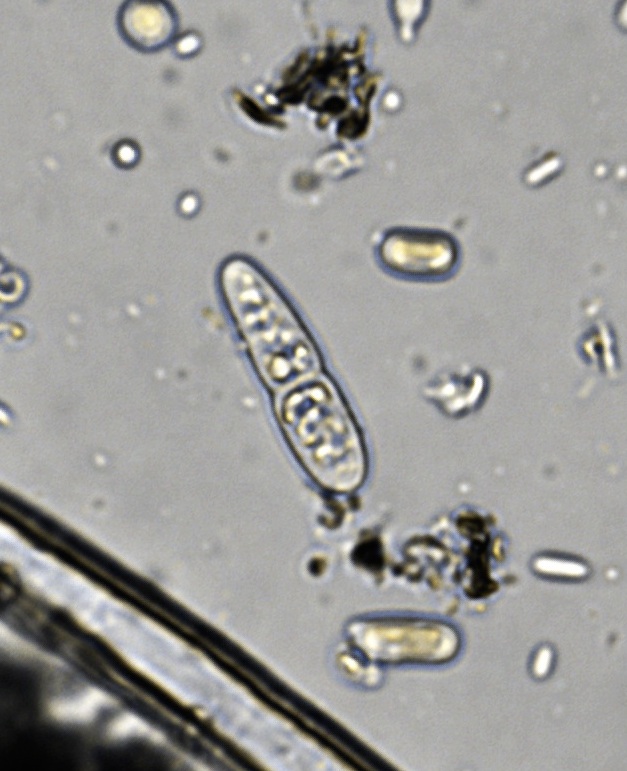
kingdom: Fungi
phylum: Ascomycota
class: Dothideomycetes
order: Dothideales
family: Dothideaceae
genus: Scirrhia
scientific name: Scirrhia rimosa
